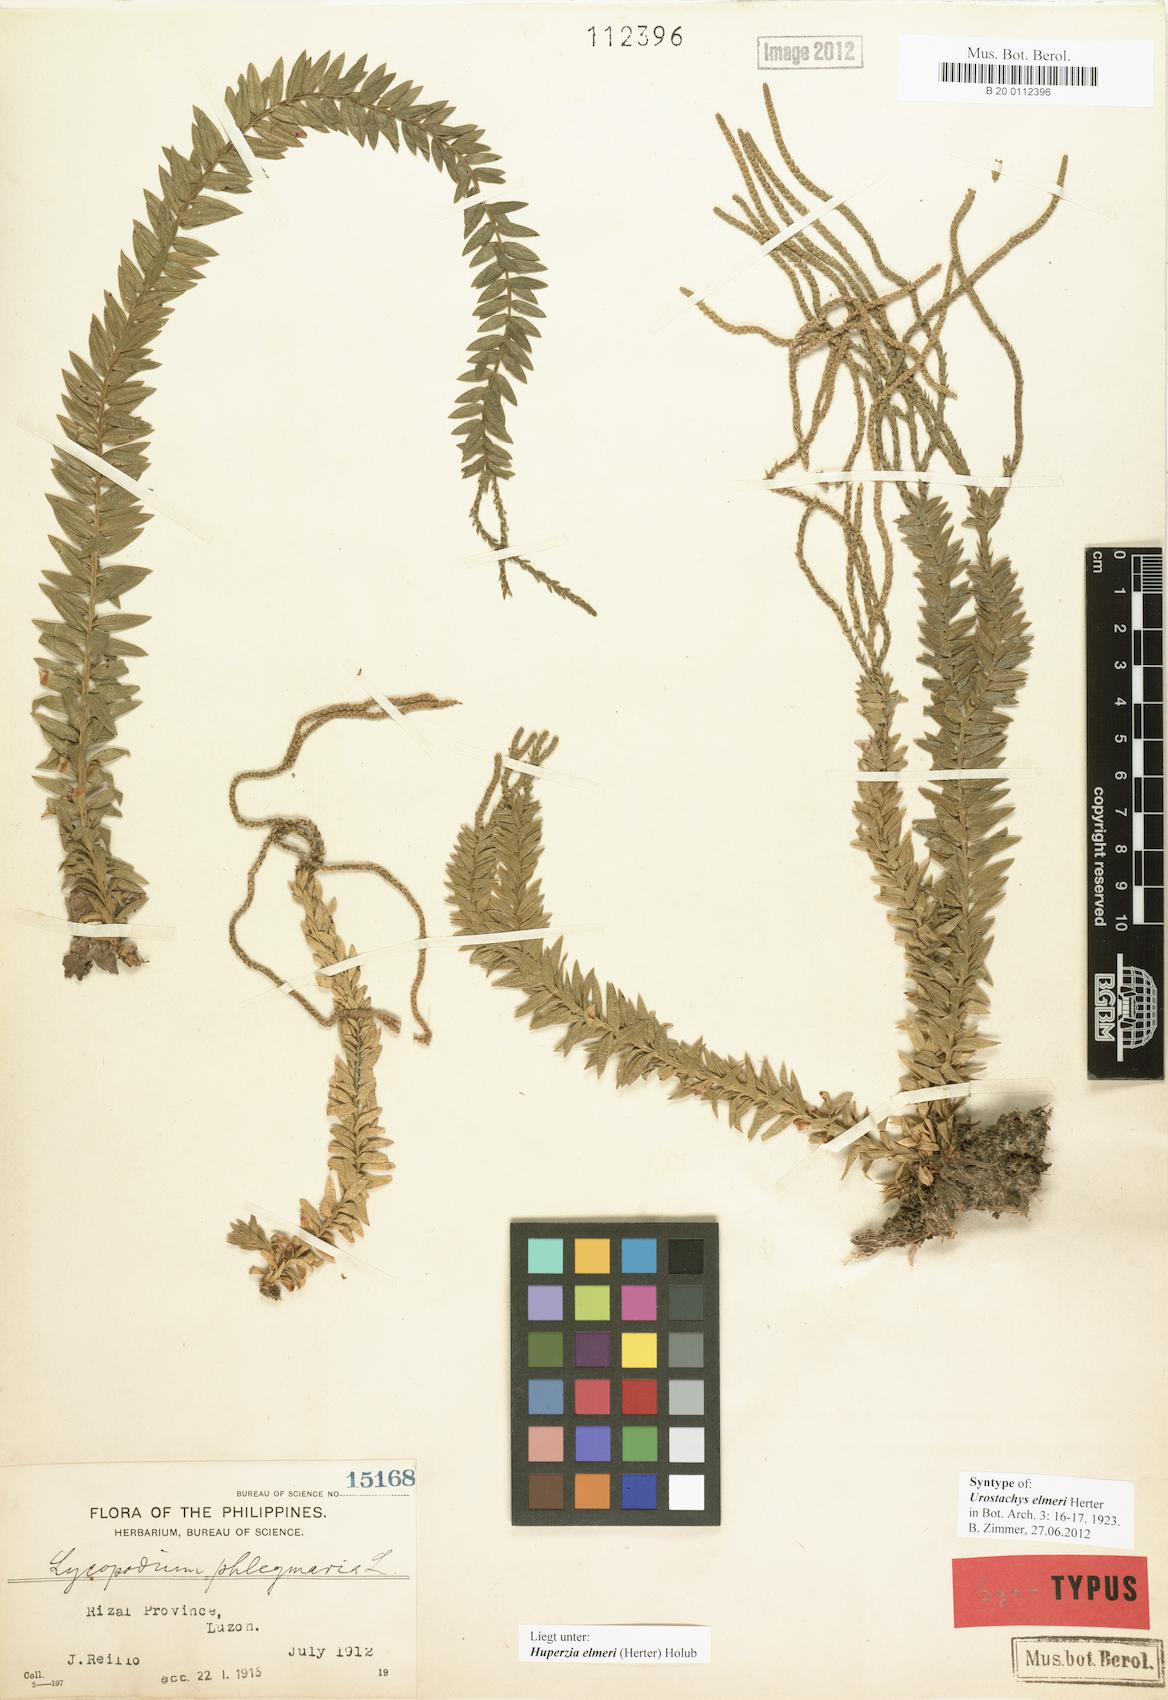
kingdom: Plantae
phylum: Tracheophyta
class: Lycopodiopsida
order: Lycopodiales
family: Lycopodiaceae
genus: Phlegmariurus
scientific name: Phlegmariurus elmeri
